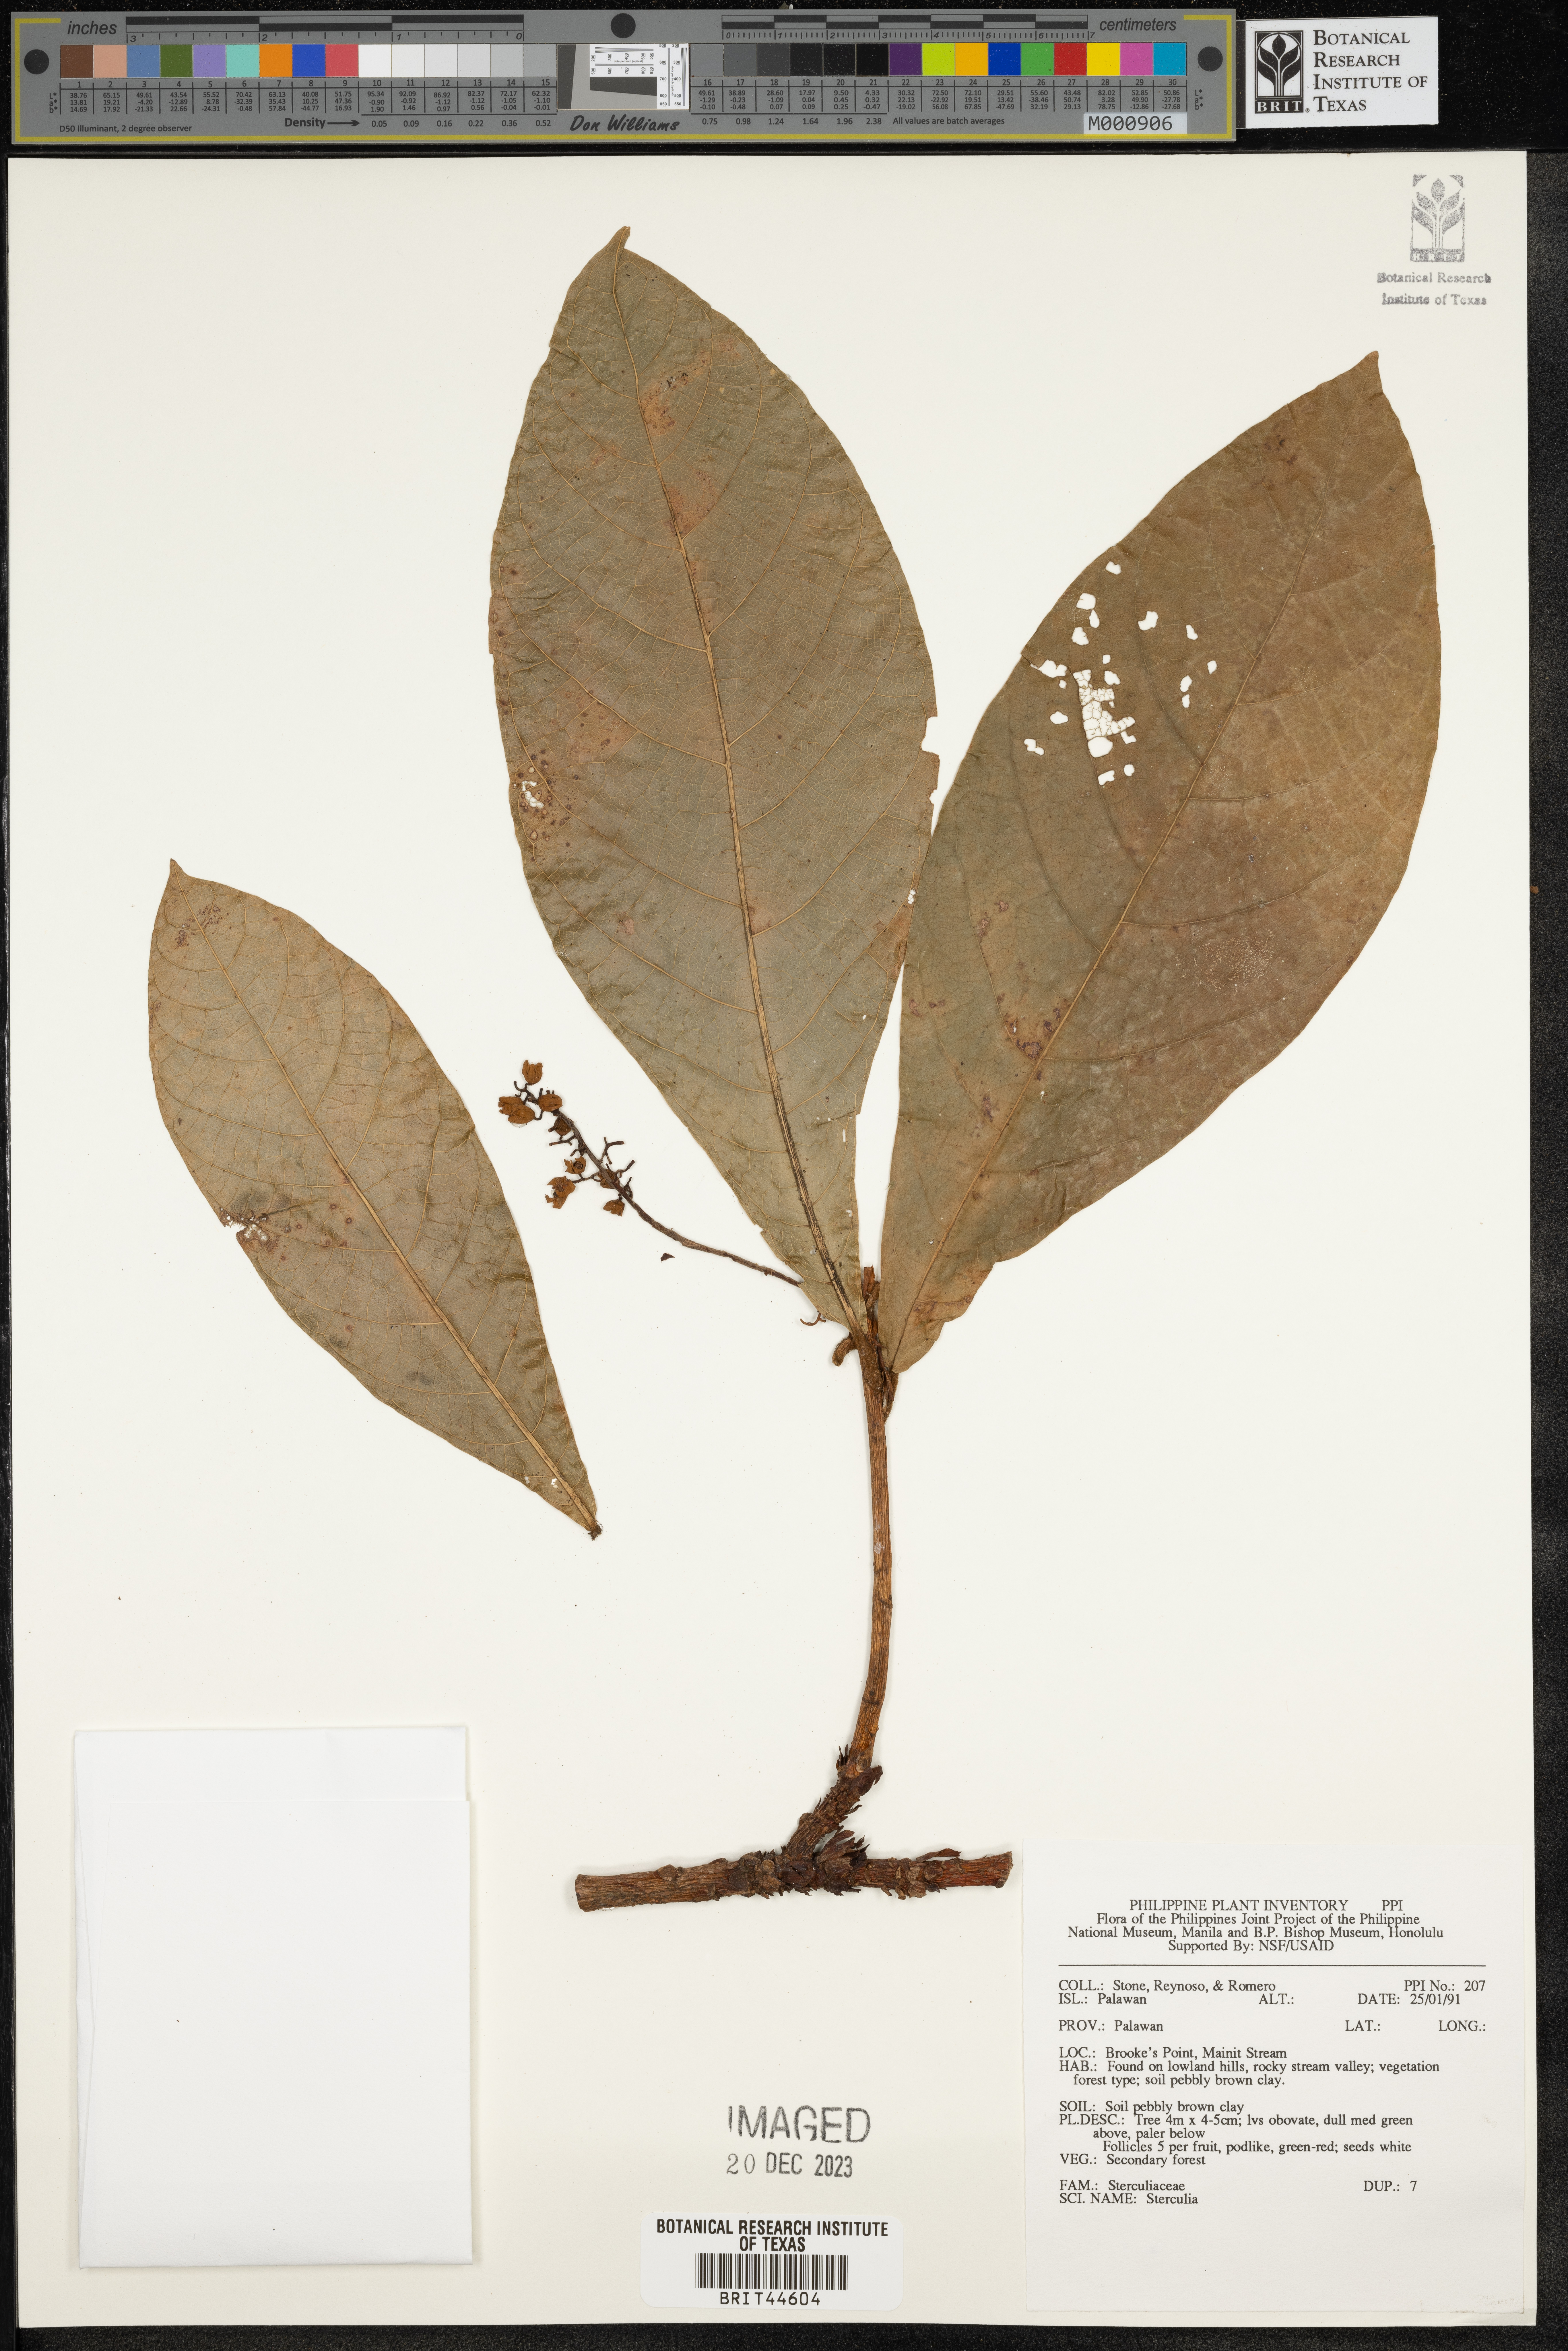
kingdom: Plantae
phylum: Tracheophyta
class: Magnoliopsida
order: Malvales
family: Malvaceae
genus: Sterculia
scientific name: Sterculia
